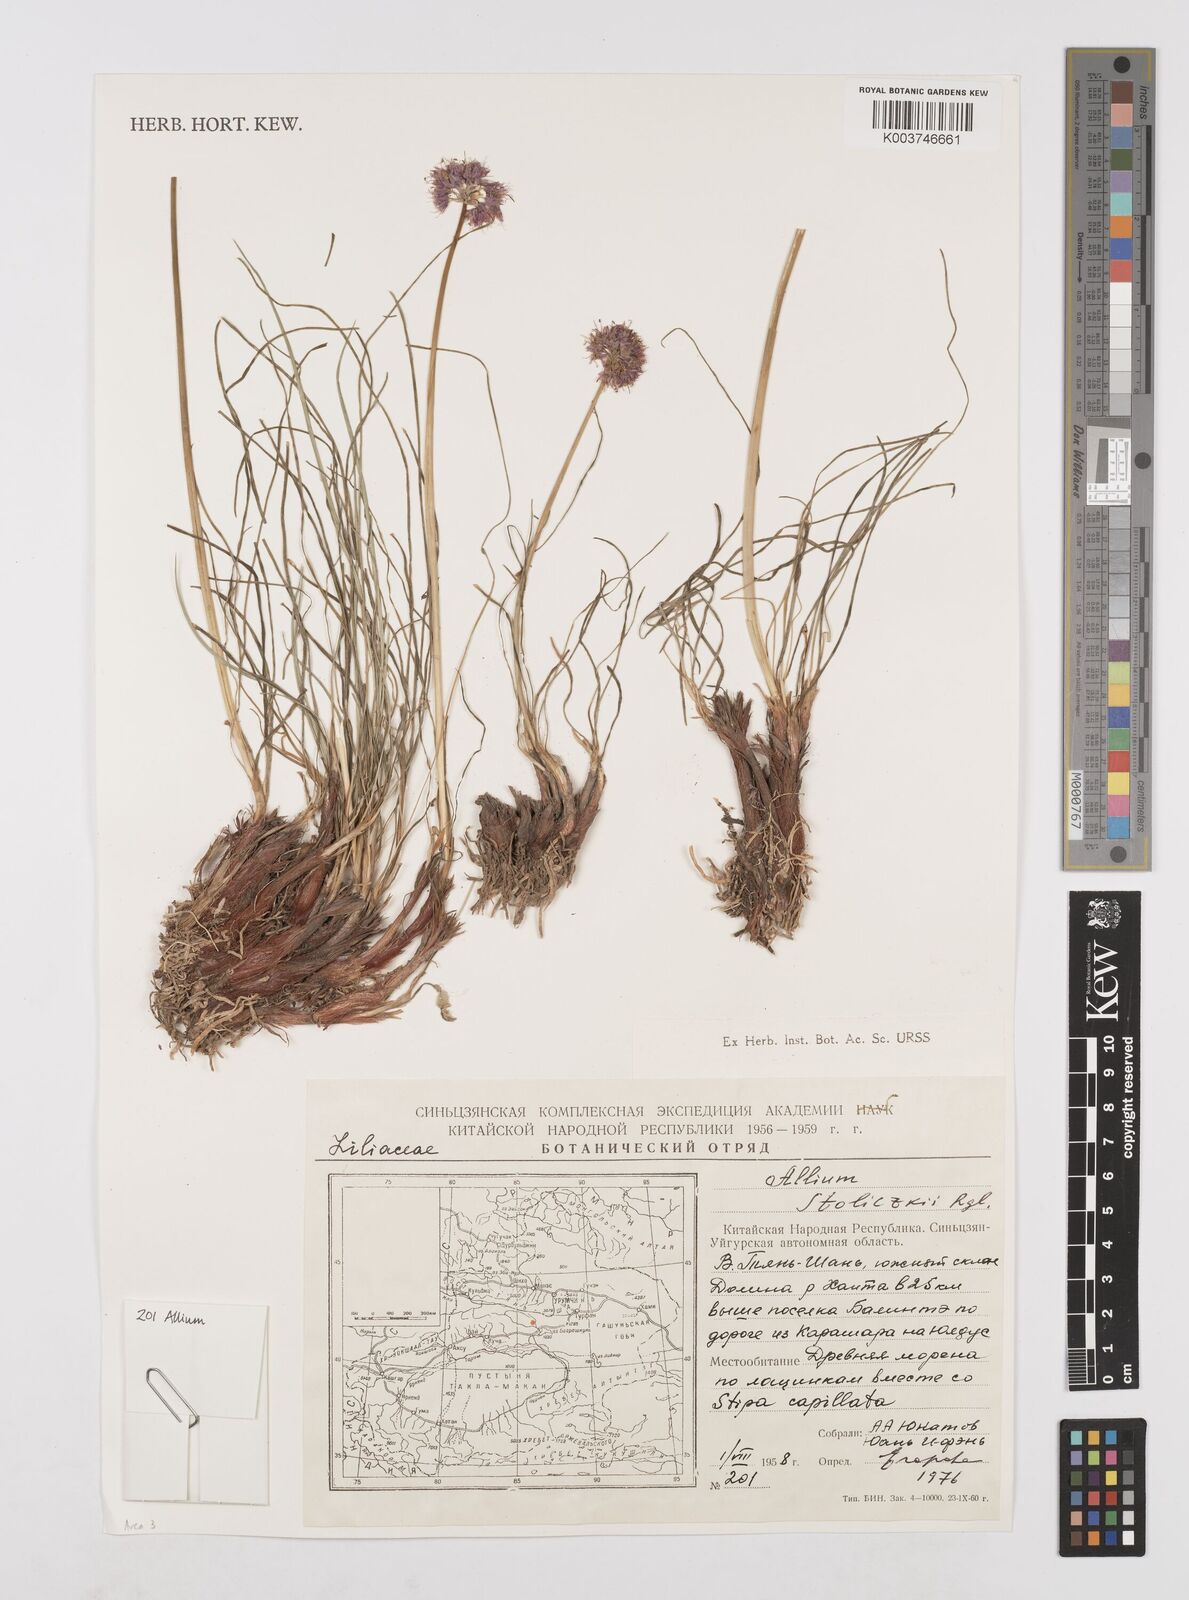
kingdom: Plantae
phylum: Tracheophyta
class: Liliopsida
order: Asparagales
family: Amaryllidaceae
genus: Allium
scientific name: Allium przewalskianum
